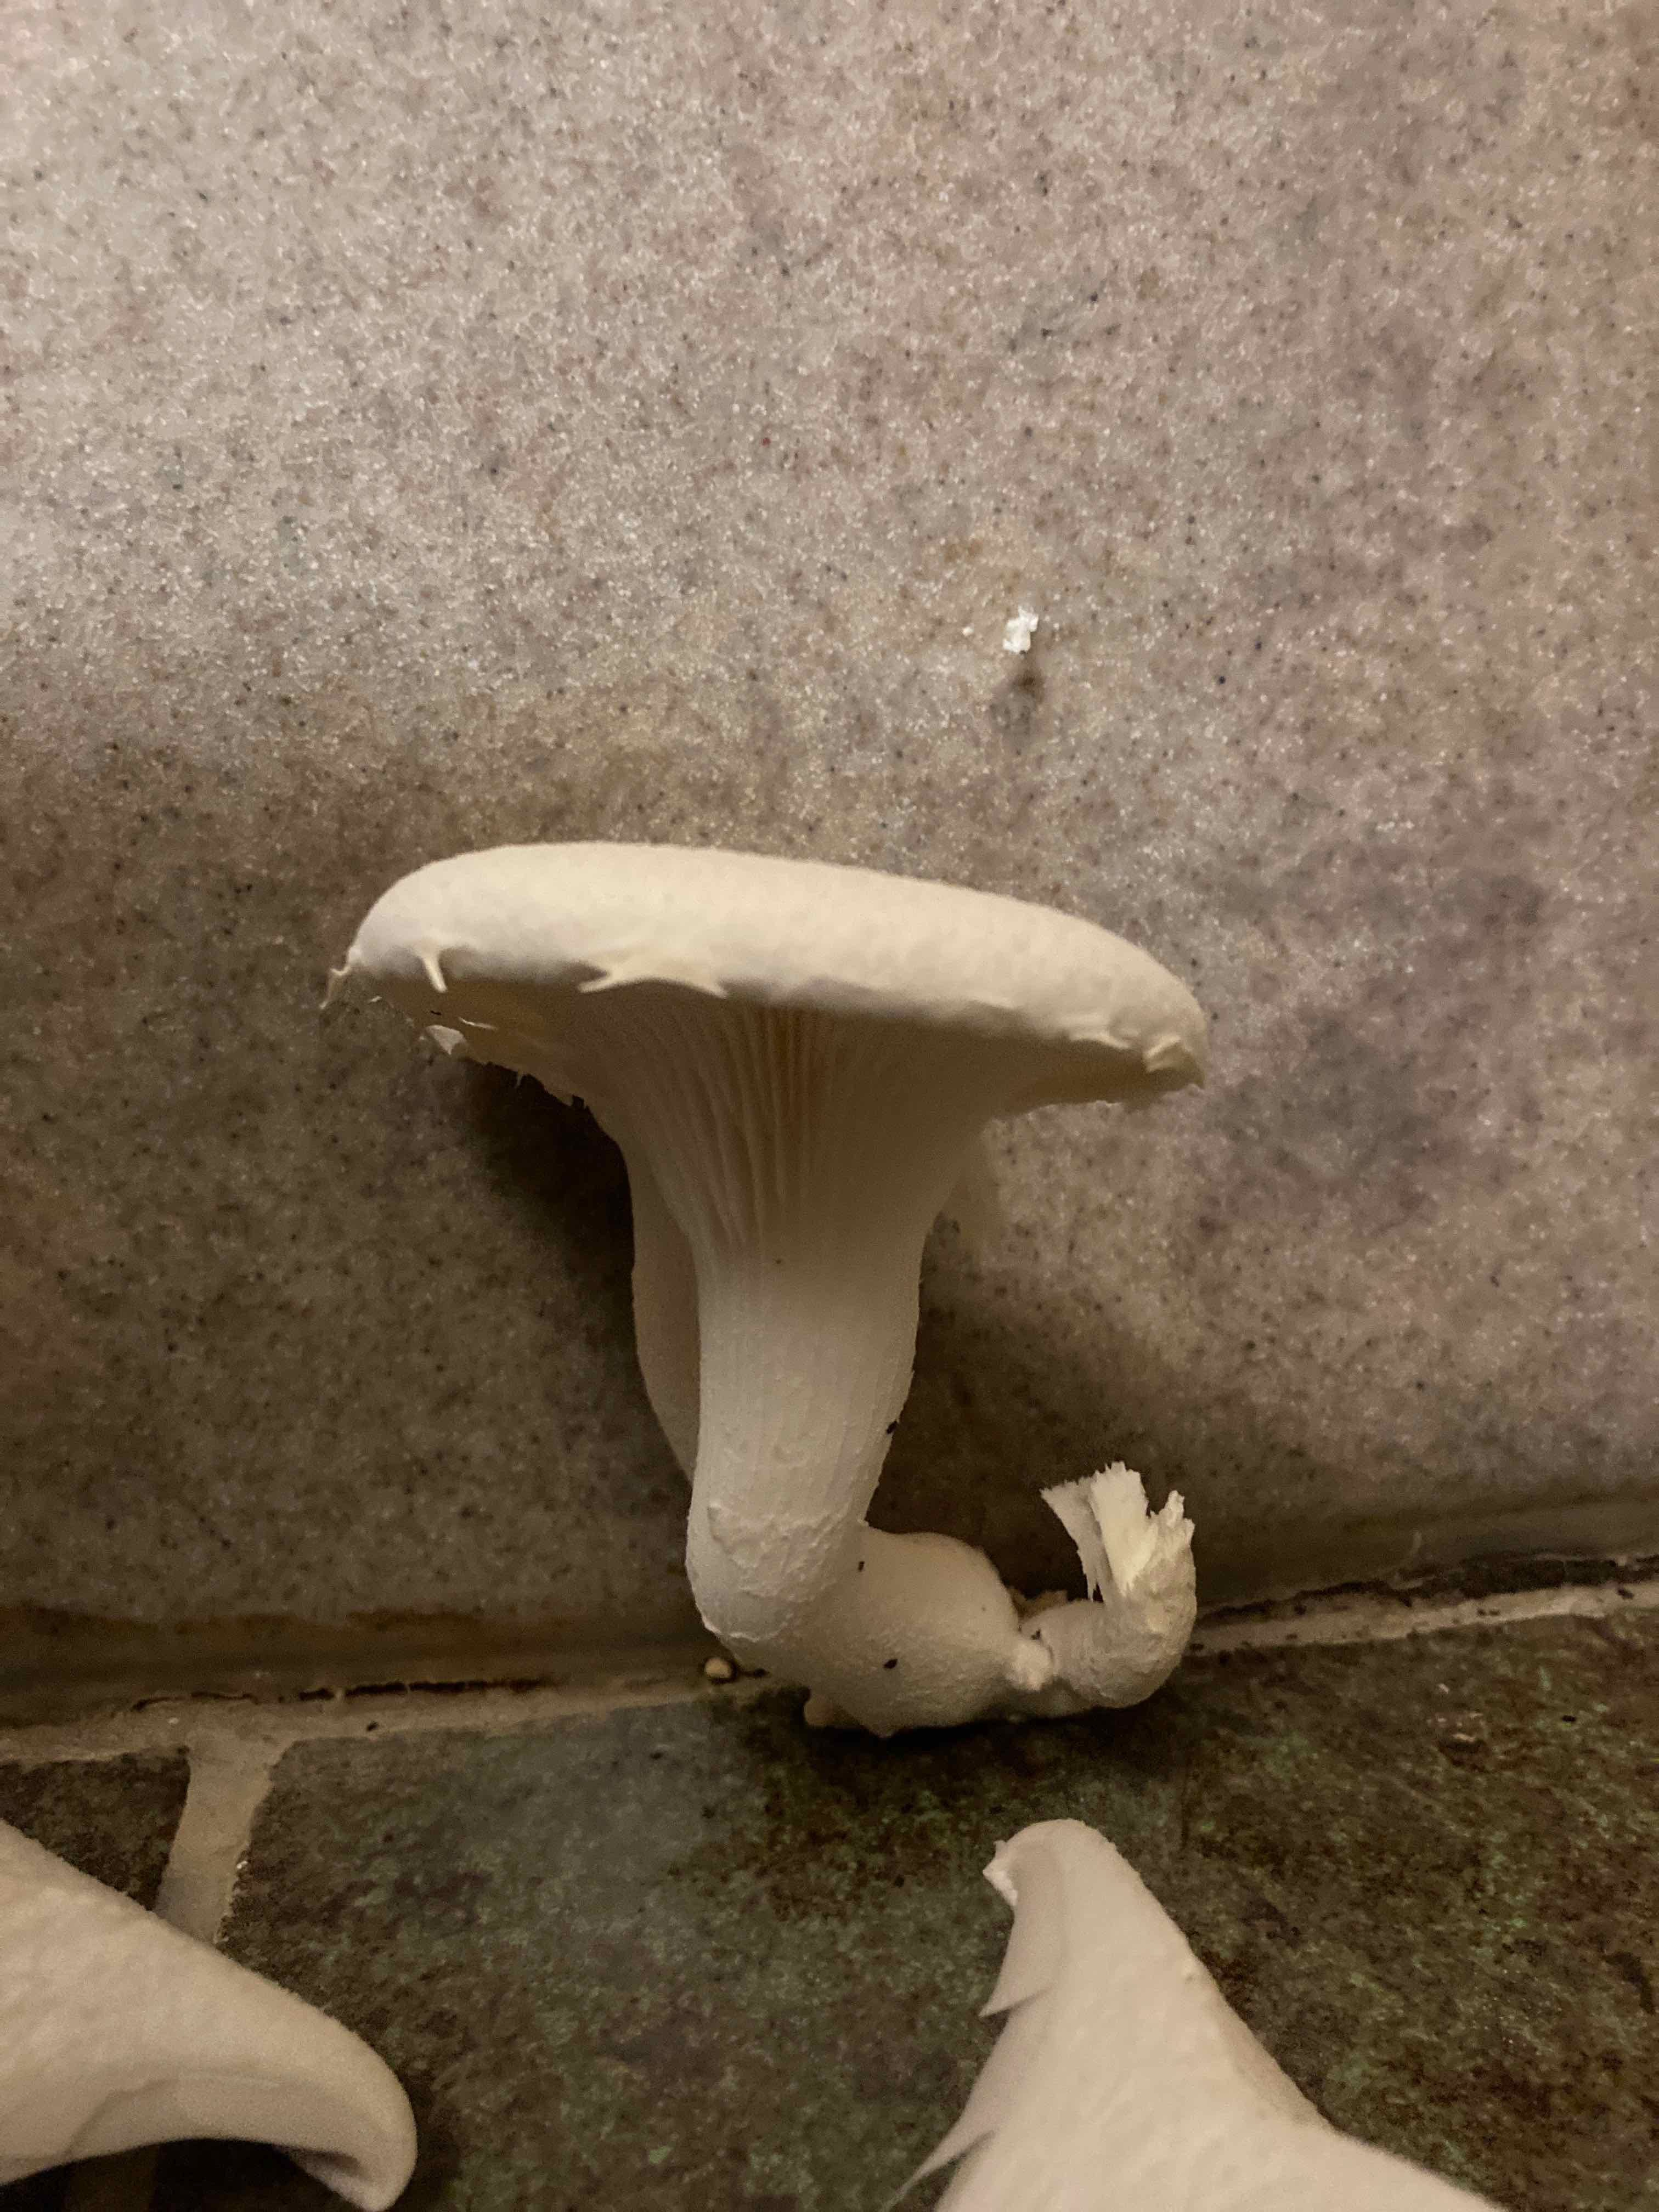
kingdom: Fungi
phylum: Basidiomycota
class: Agaricomycetes
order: Agaricales
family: Pleurotaceae
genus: Pleurotus
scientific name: Pleurotus dryinus
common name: korkagtig østershat
